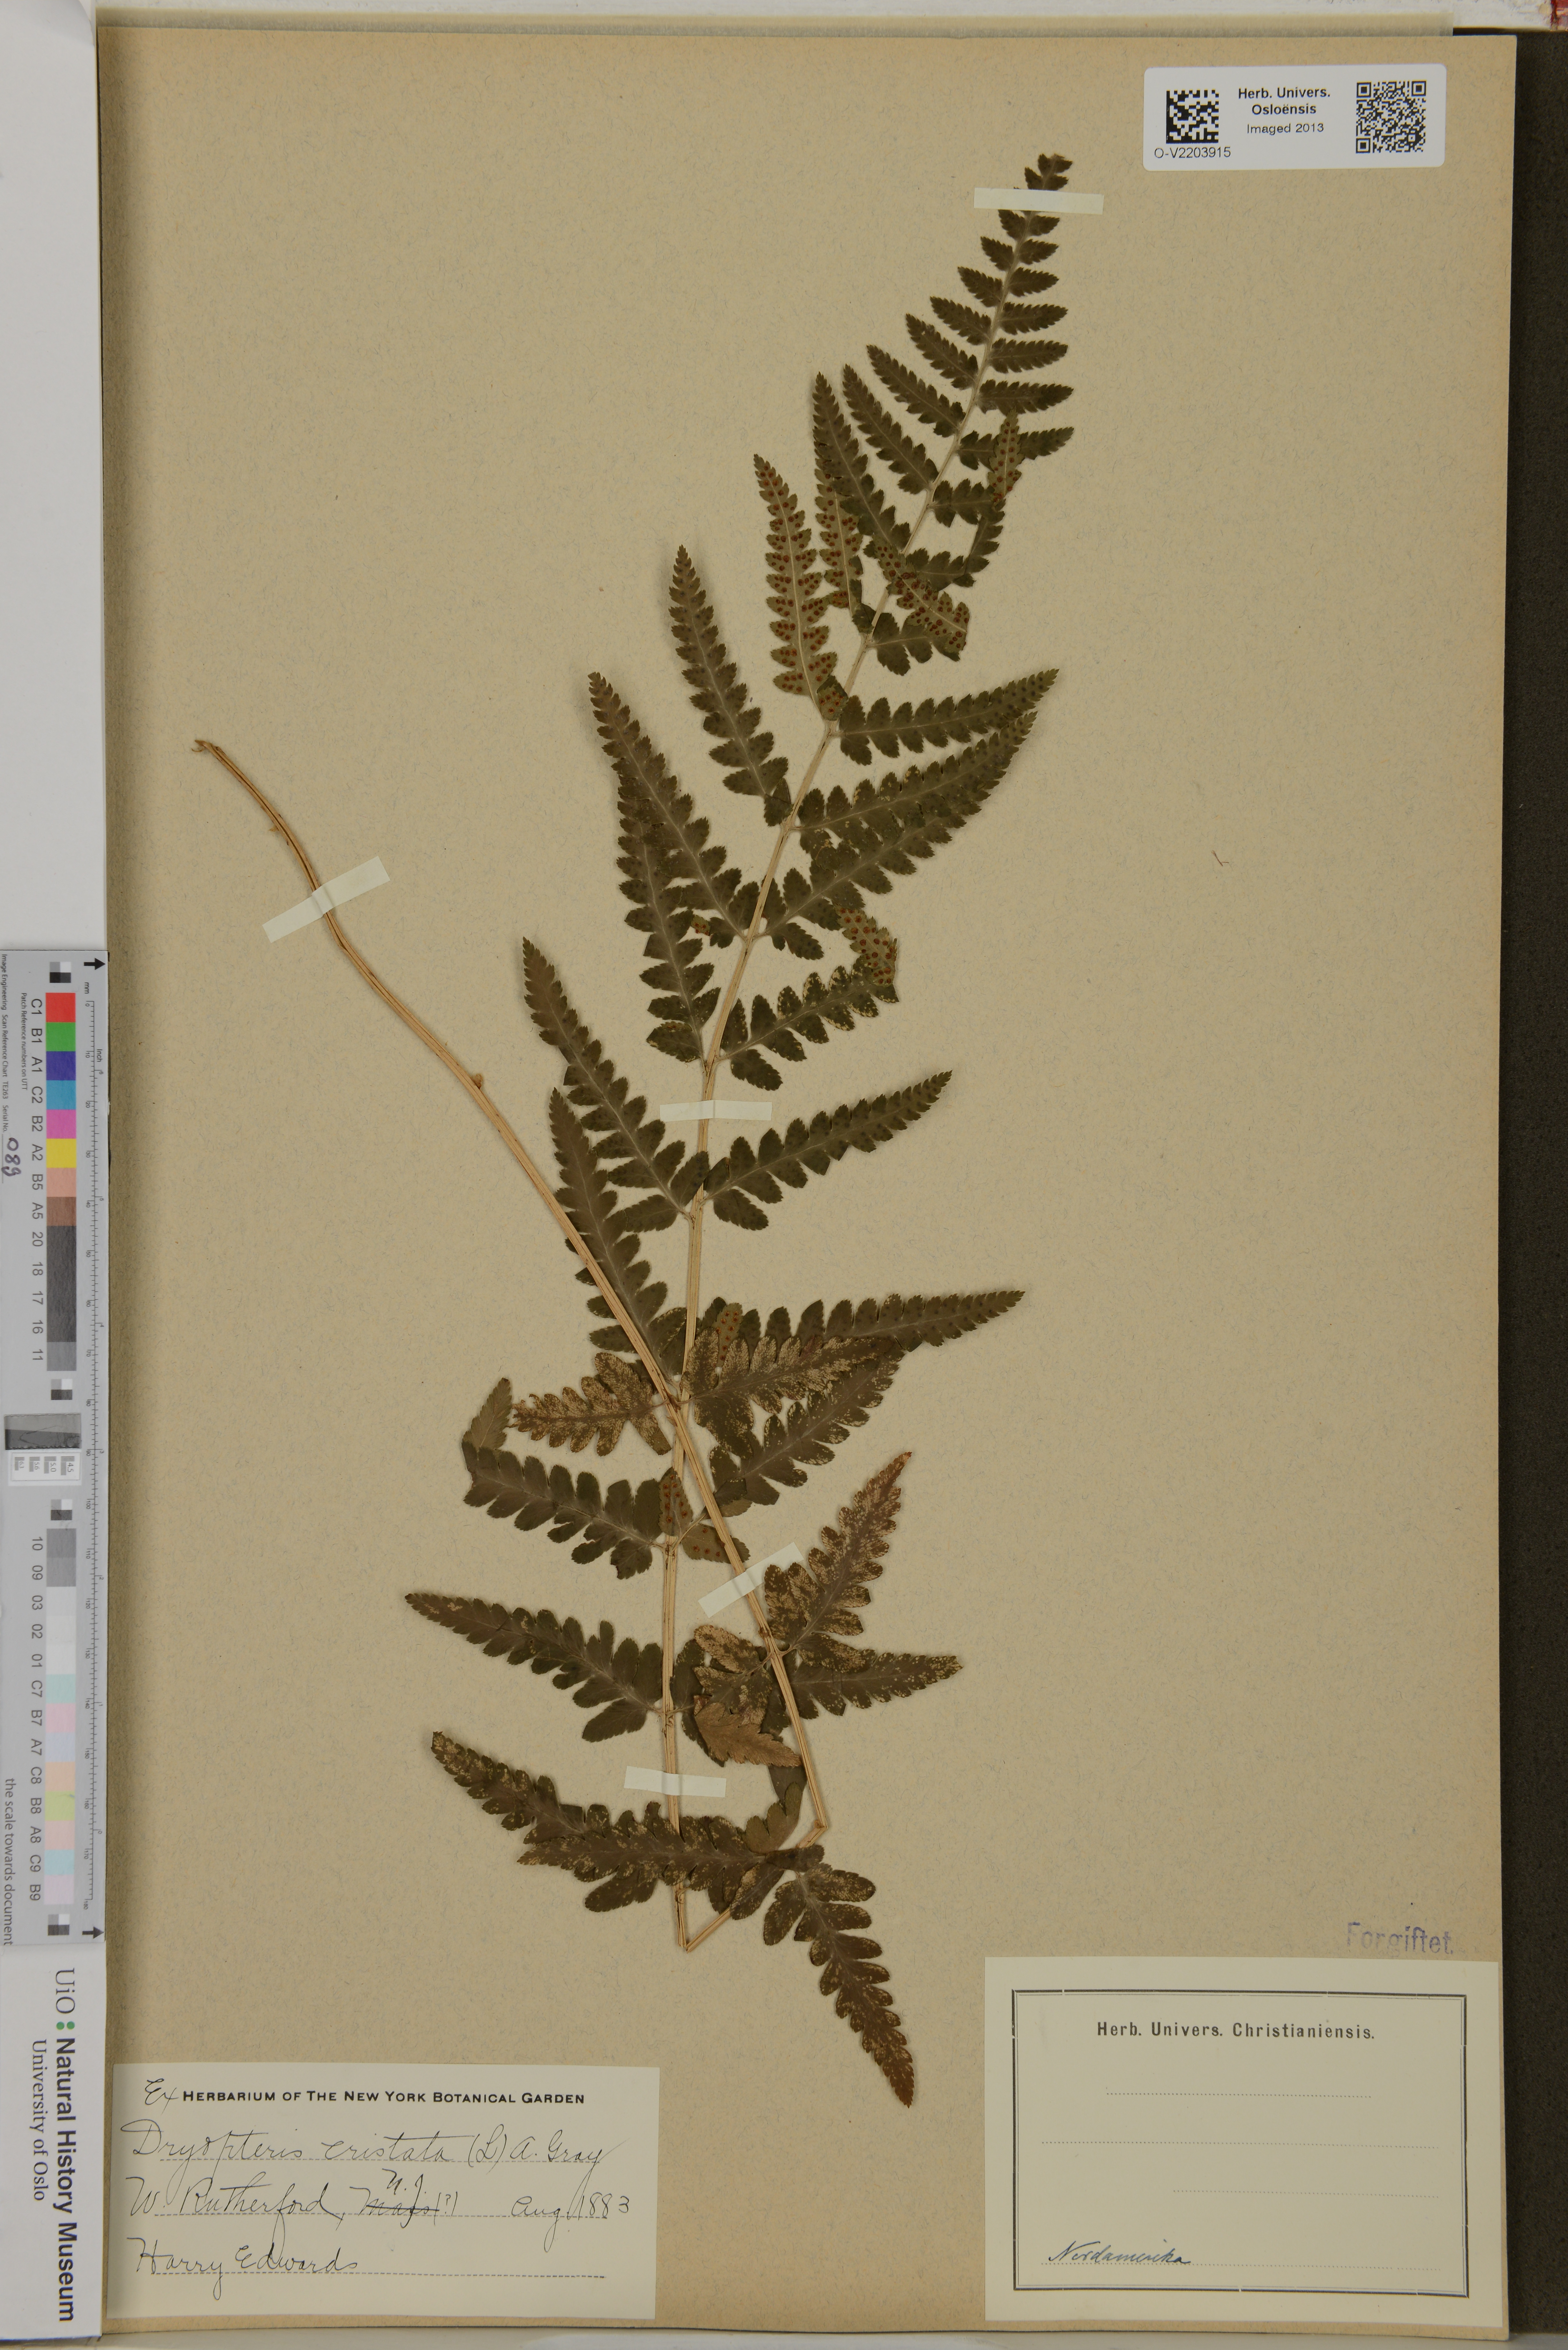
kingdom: Plantae
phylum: Tracheophyta
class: Polypodiopsida
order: Polypodiales
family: Dryopteridaceae
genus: Dryopteris
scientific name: Dryopteris cristata
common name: Crested wood fern
